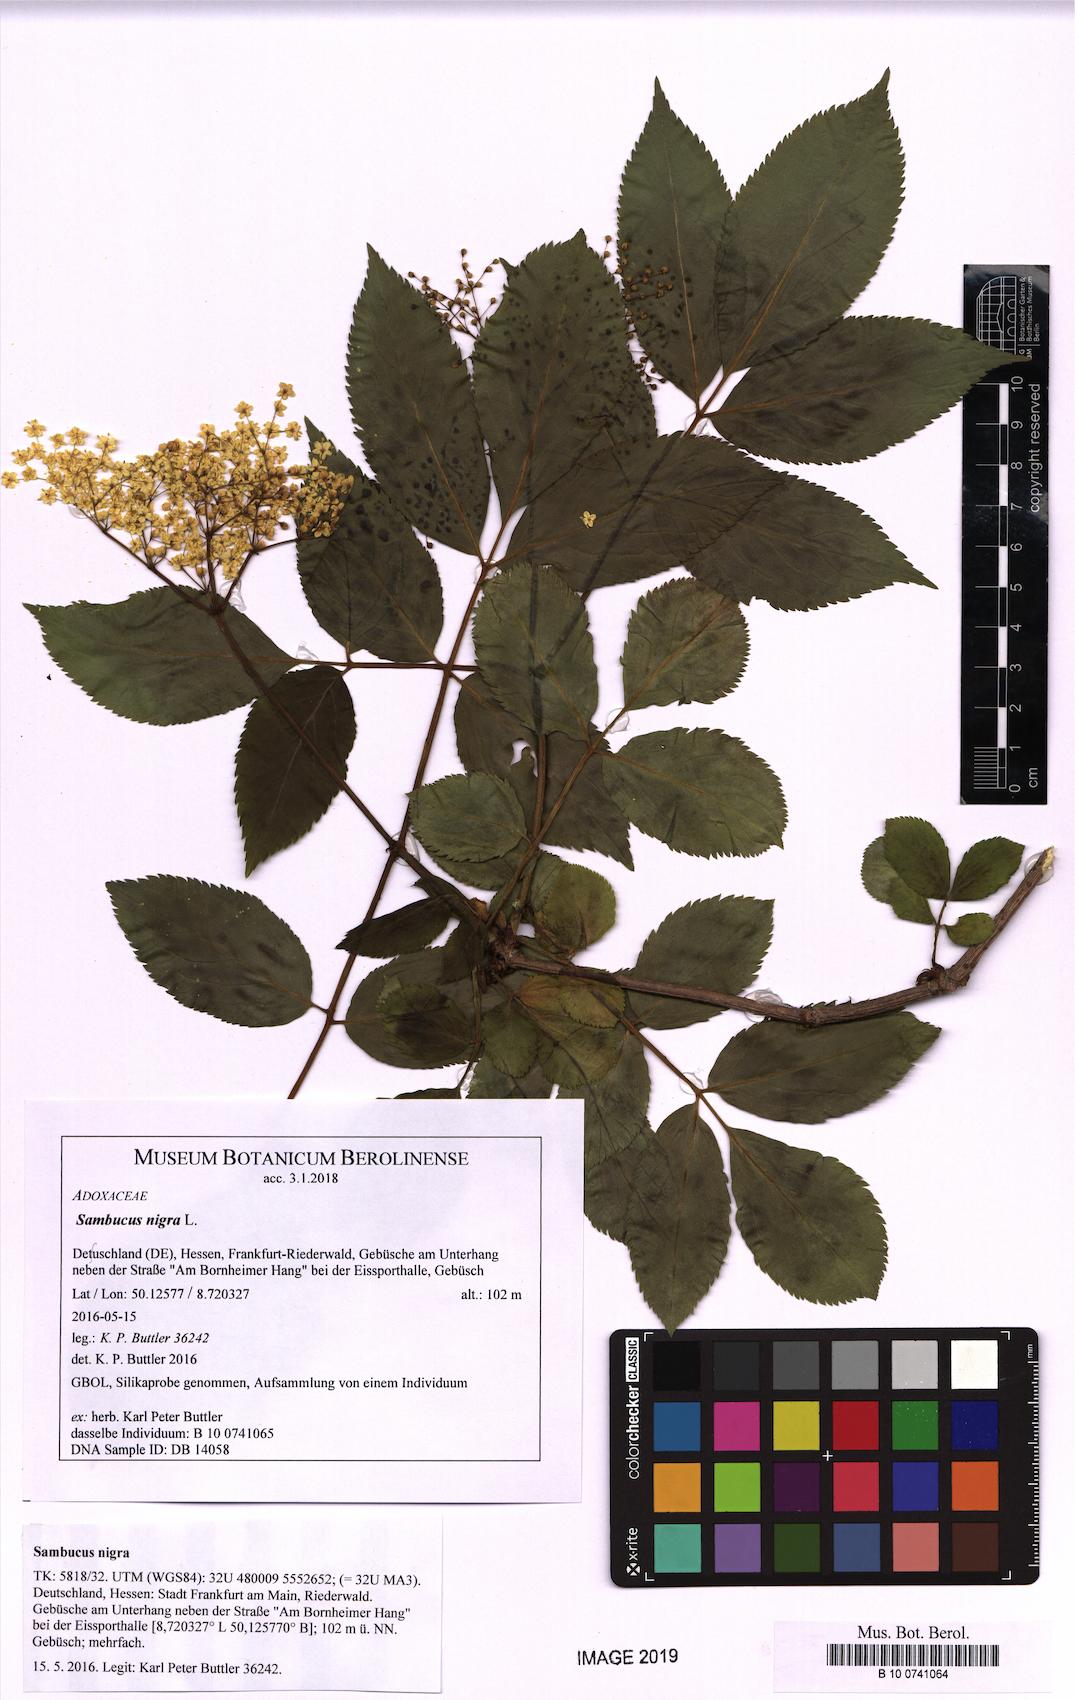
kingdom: Plantae
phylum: Tracheophyta
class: Magnoliopsida
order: Dipsacales
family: Viburnaceae
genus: Sambucus
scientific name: Sambucus nigra
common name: Elder
